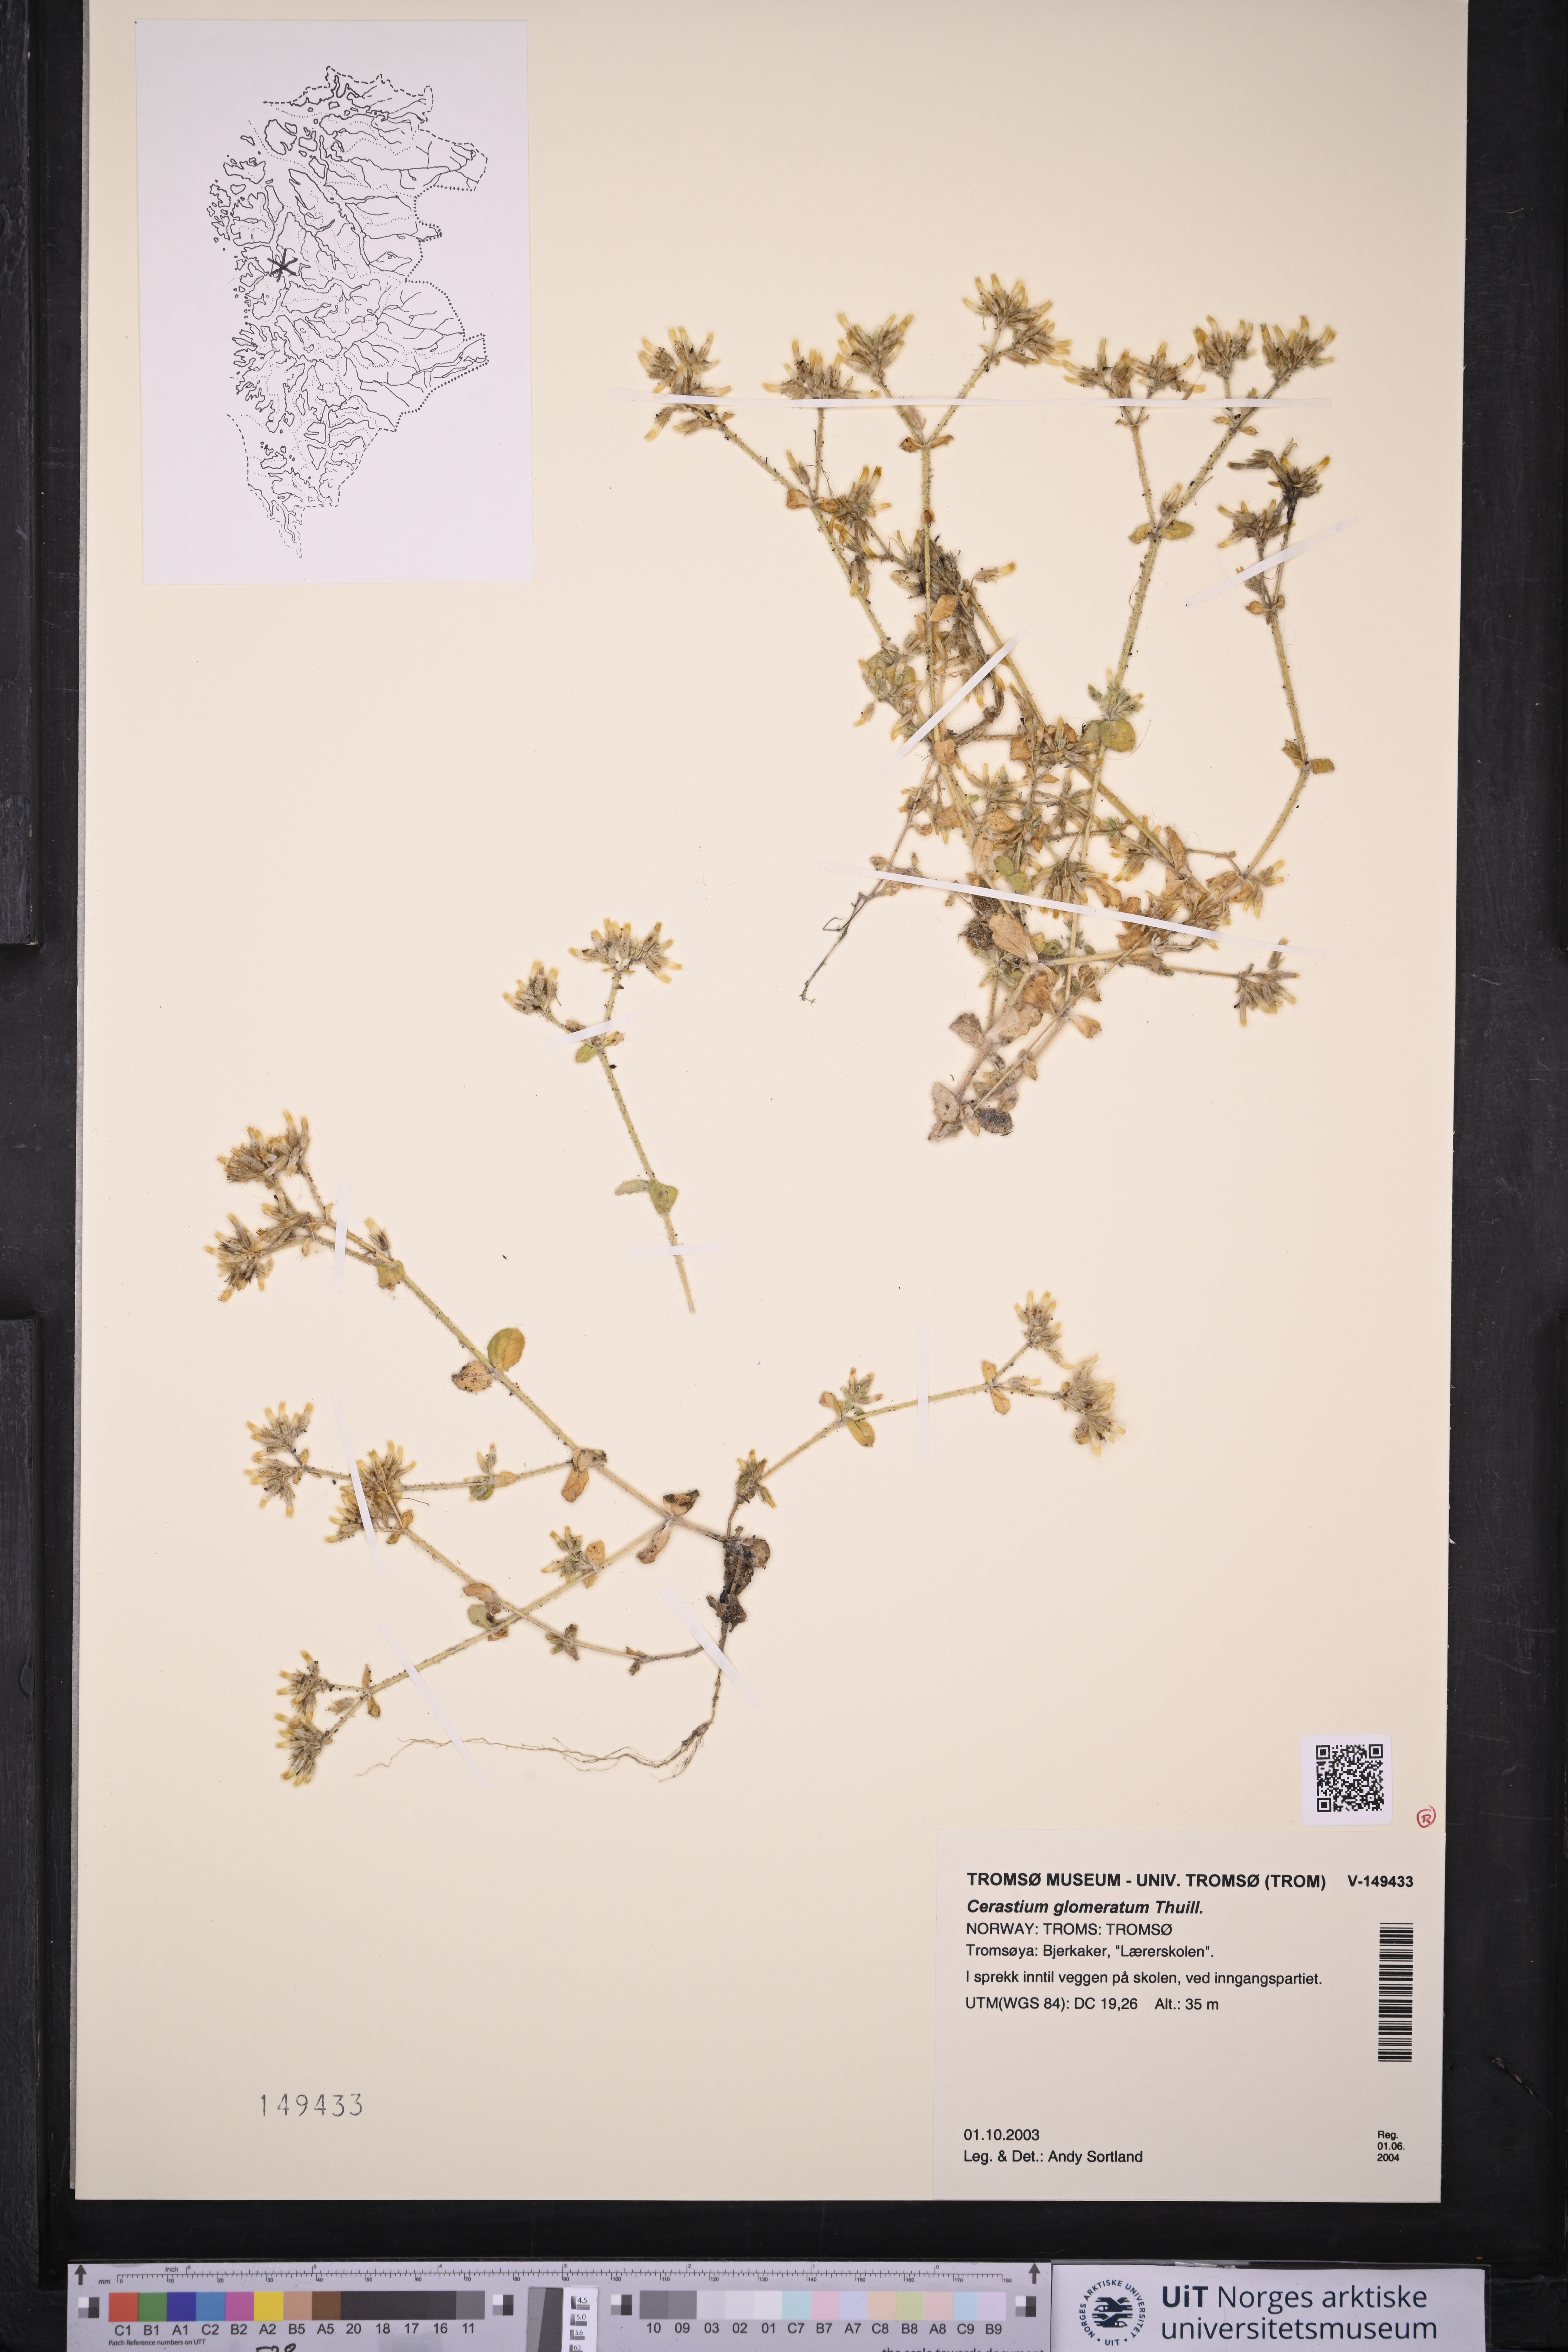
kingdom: Plantae
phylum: Tracheophyta
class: Magnoliopsida
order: Caryophyllales
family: Caryophyllaceae
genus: Cerastium
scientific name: Cerastium glomeratum
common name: Sticky chickweed
